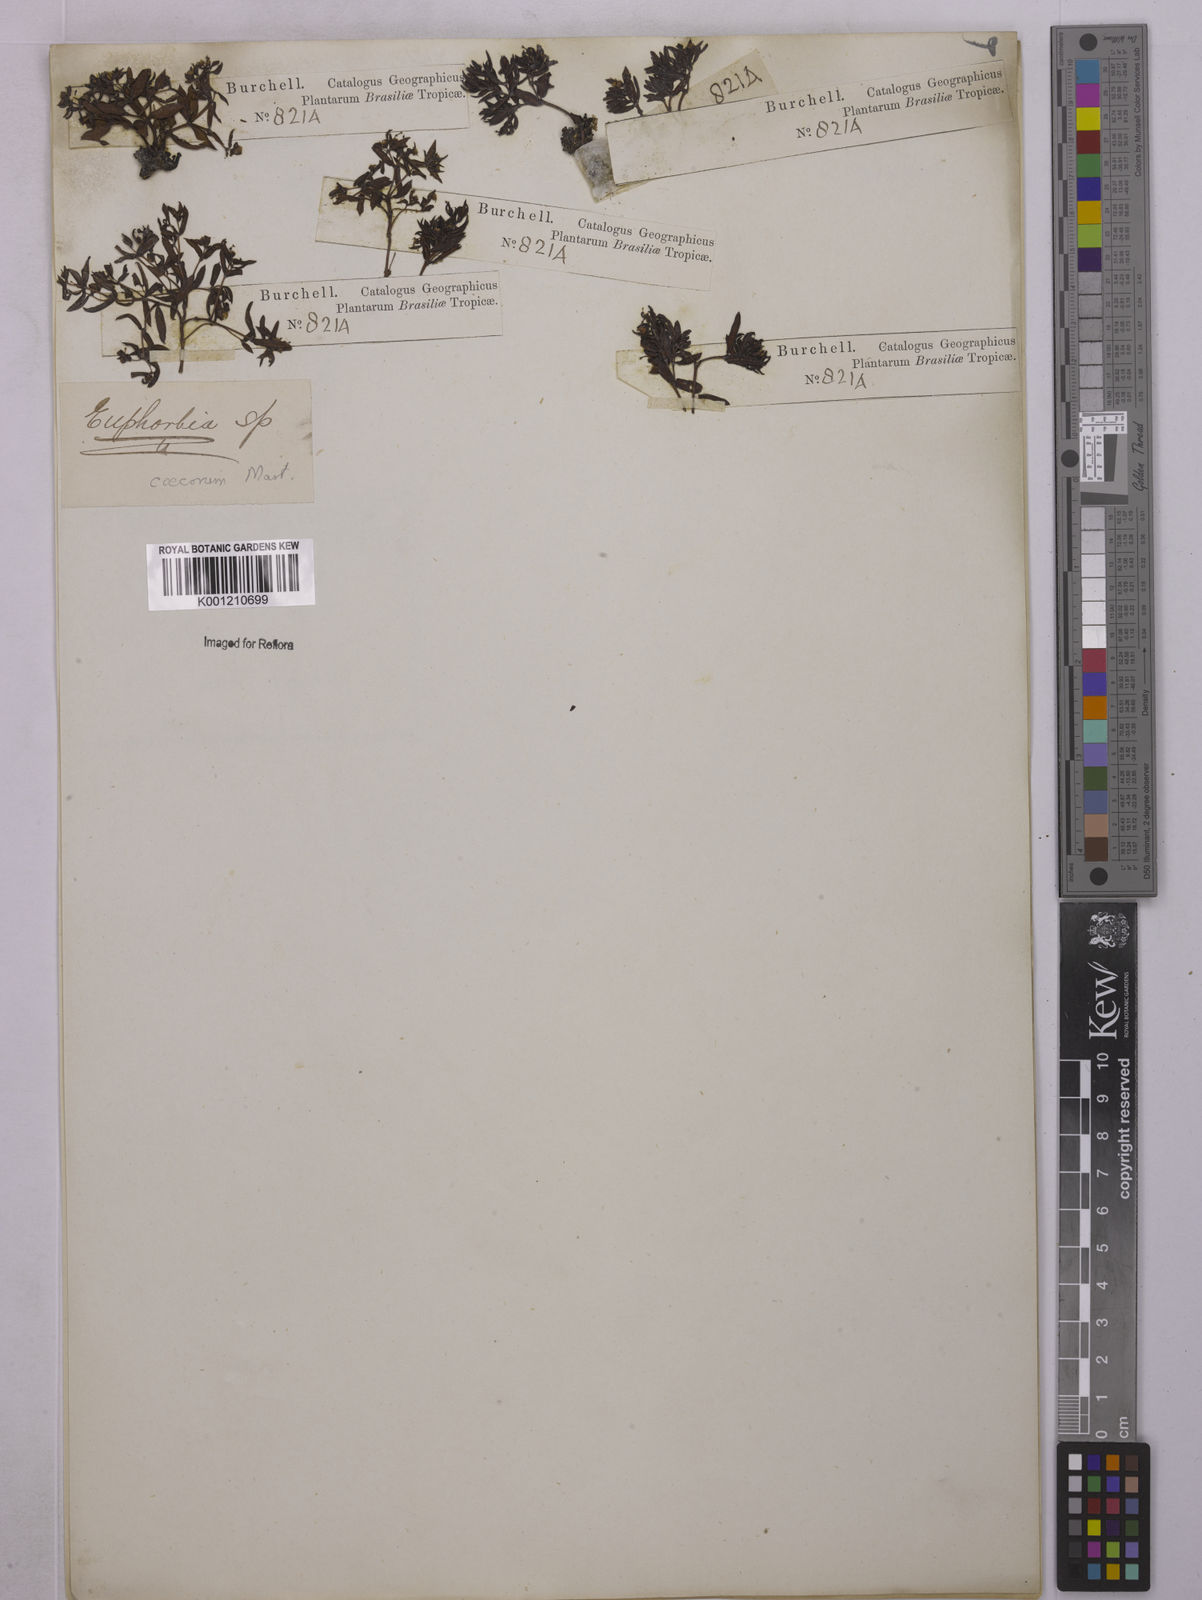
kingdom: Plantae
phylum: Tracheophyta
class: Magnoliopsida
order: Malpighiales
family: Euphorbiaceae
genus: Euphorbia
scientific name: Euphorbia potentilloides
